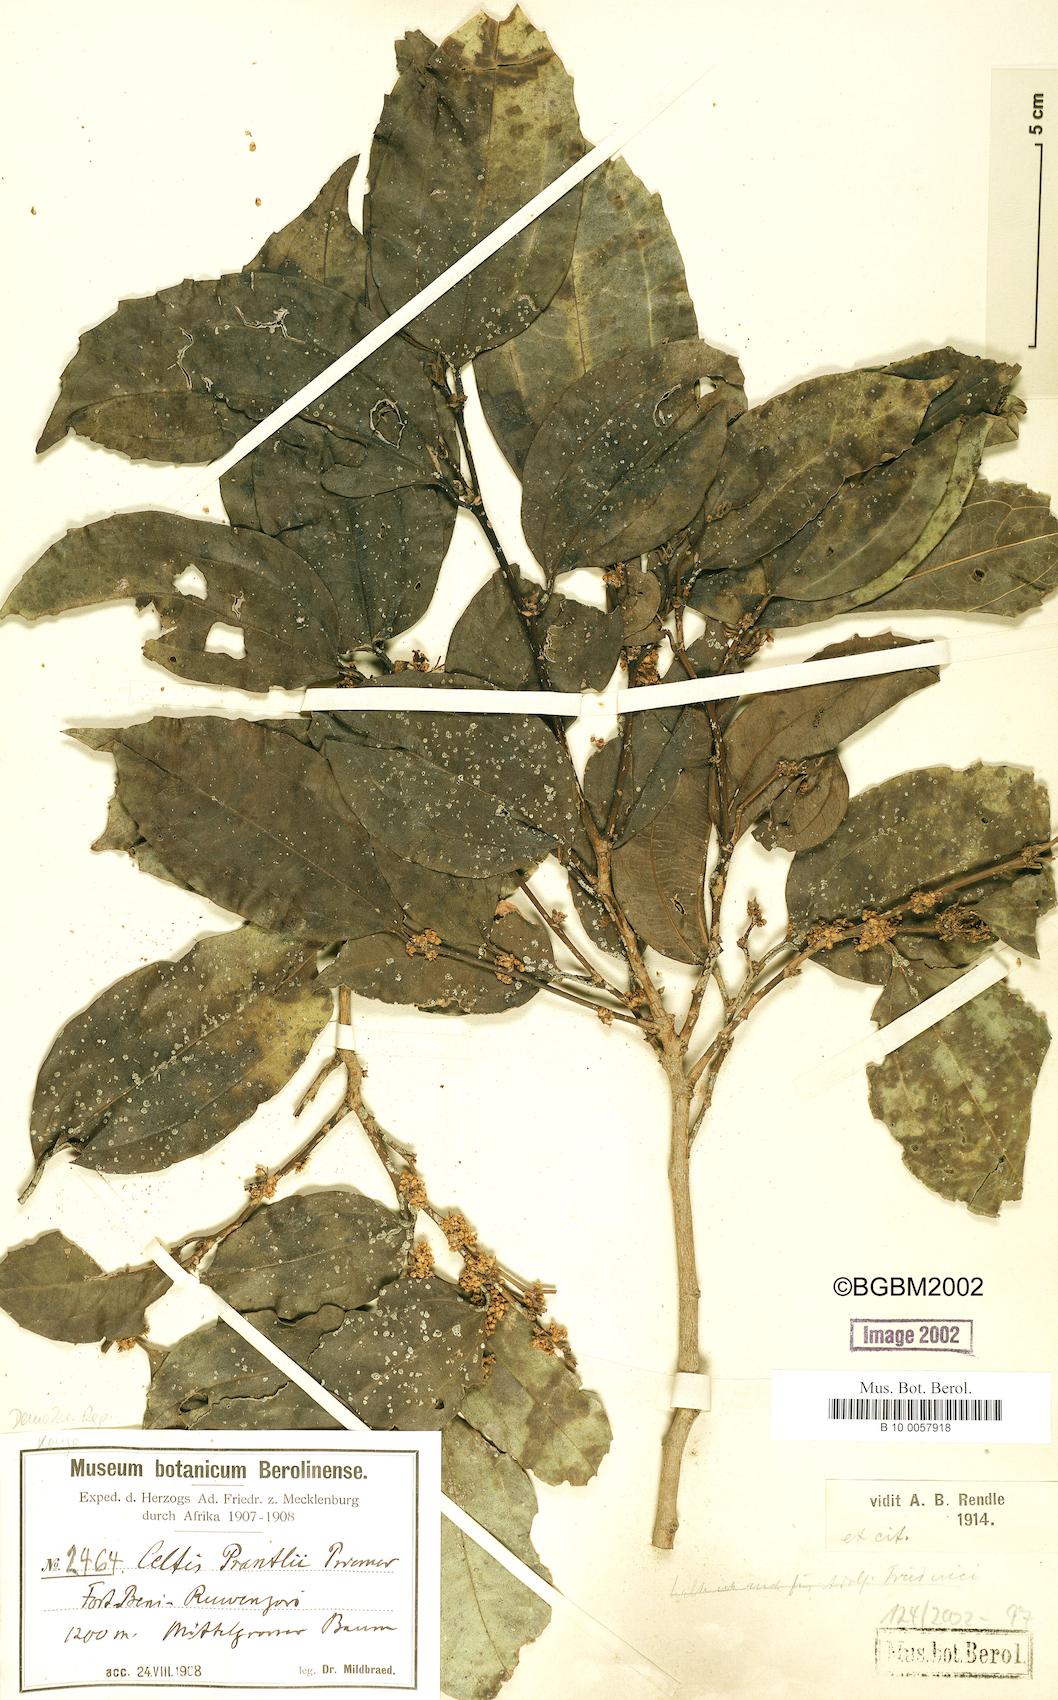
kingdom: Plantae
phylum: Tracheophyta
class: Magnoliopsida
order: Rosales
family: Cannabaceae
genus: Celtis
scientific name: Celtis philippensis
